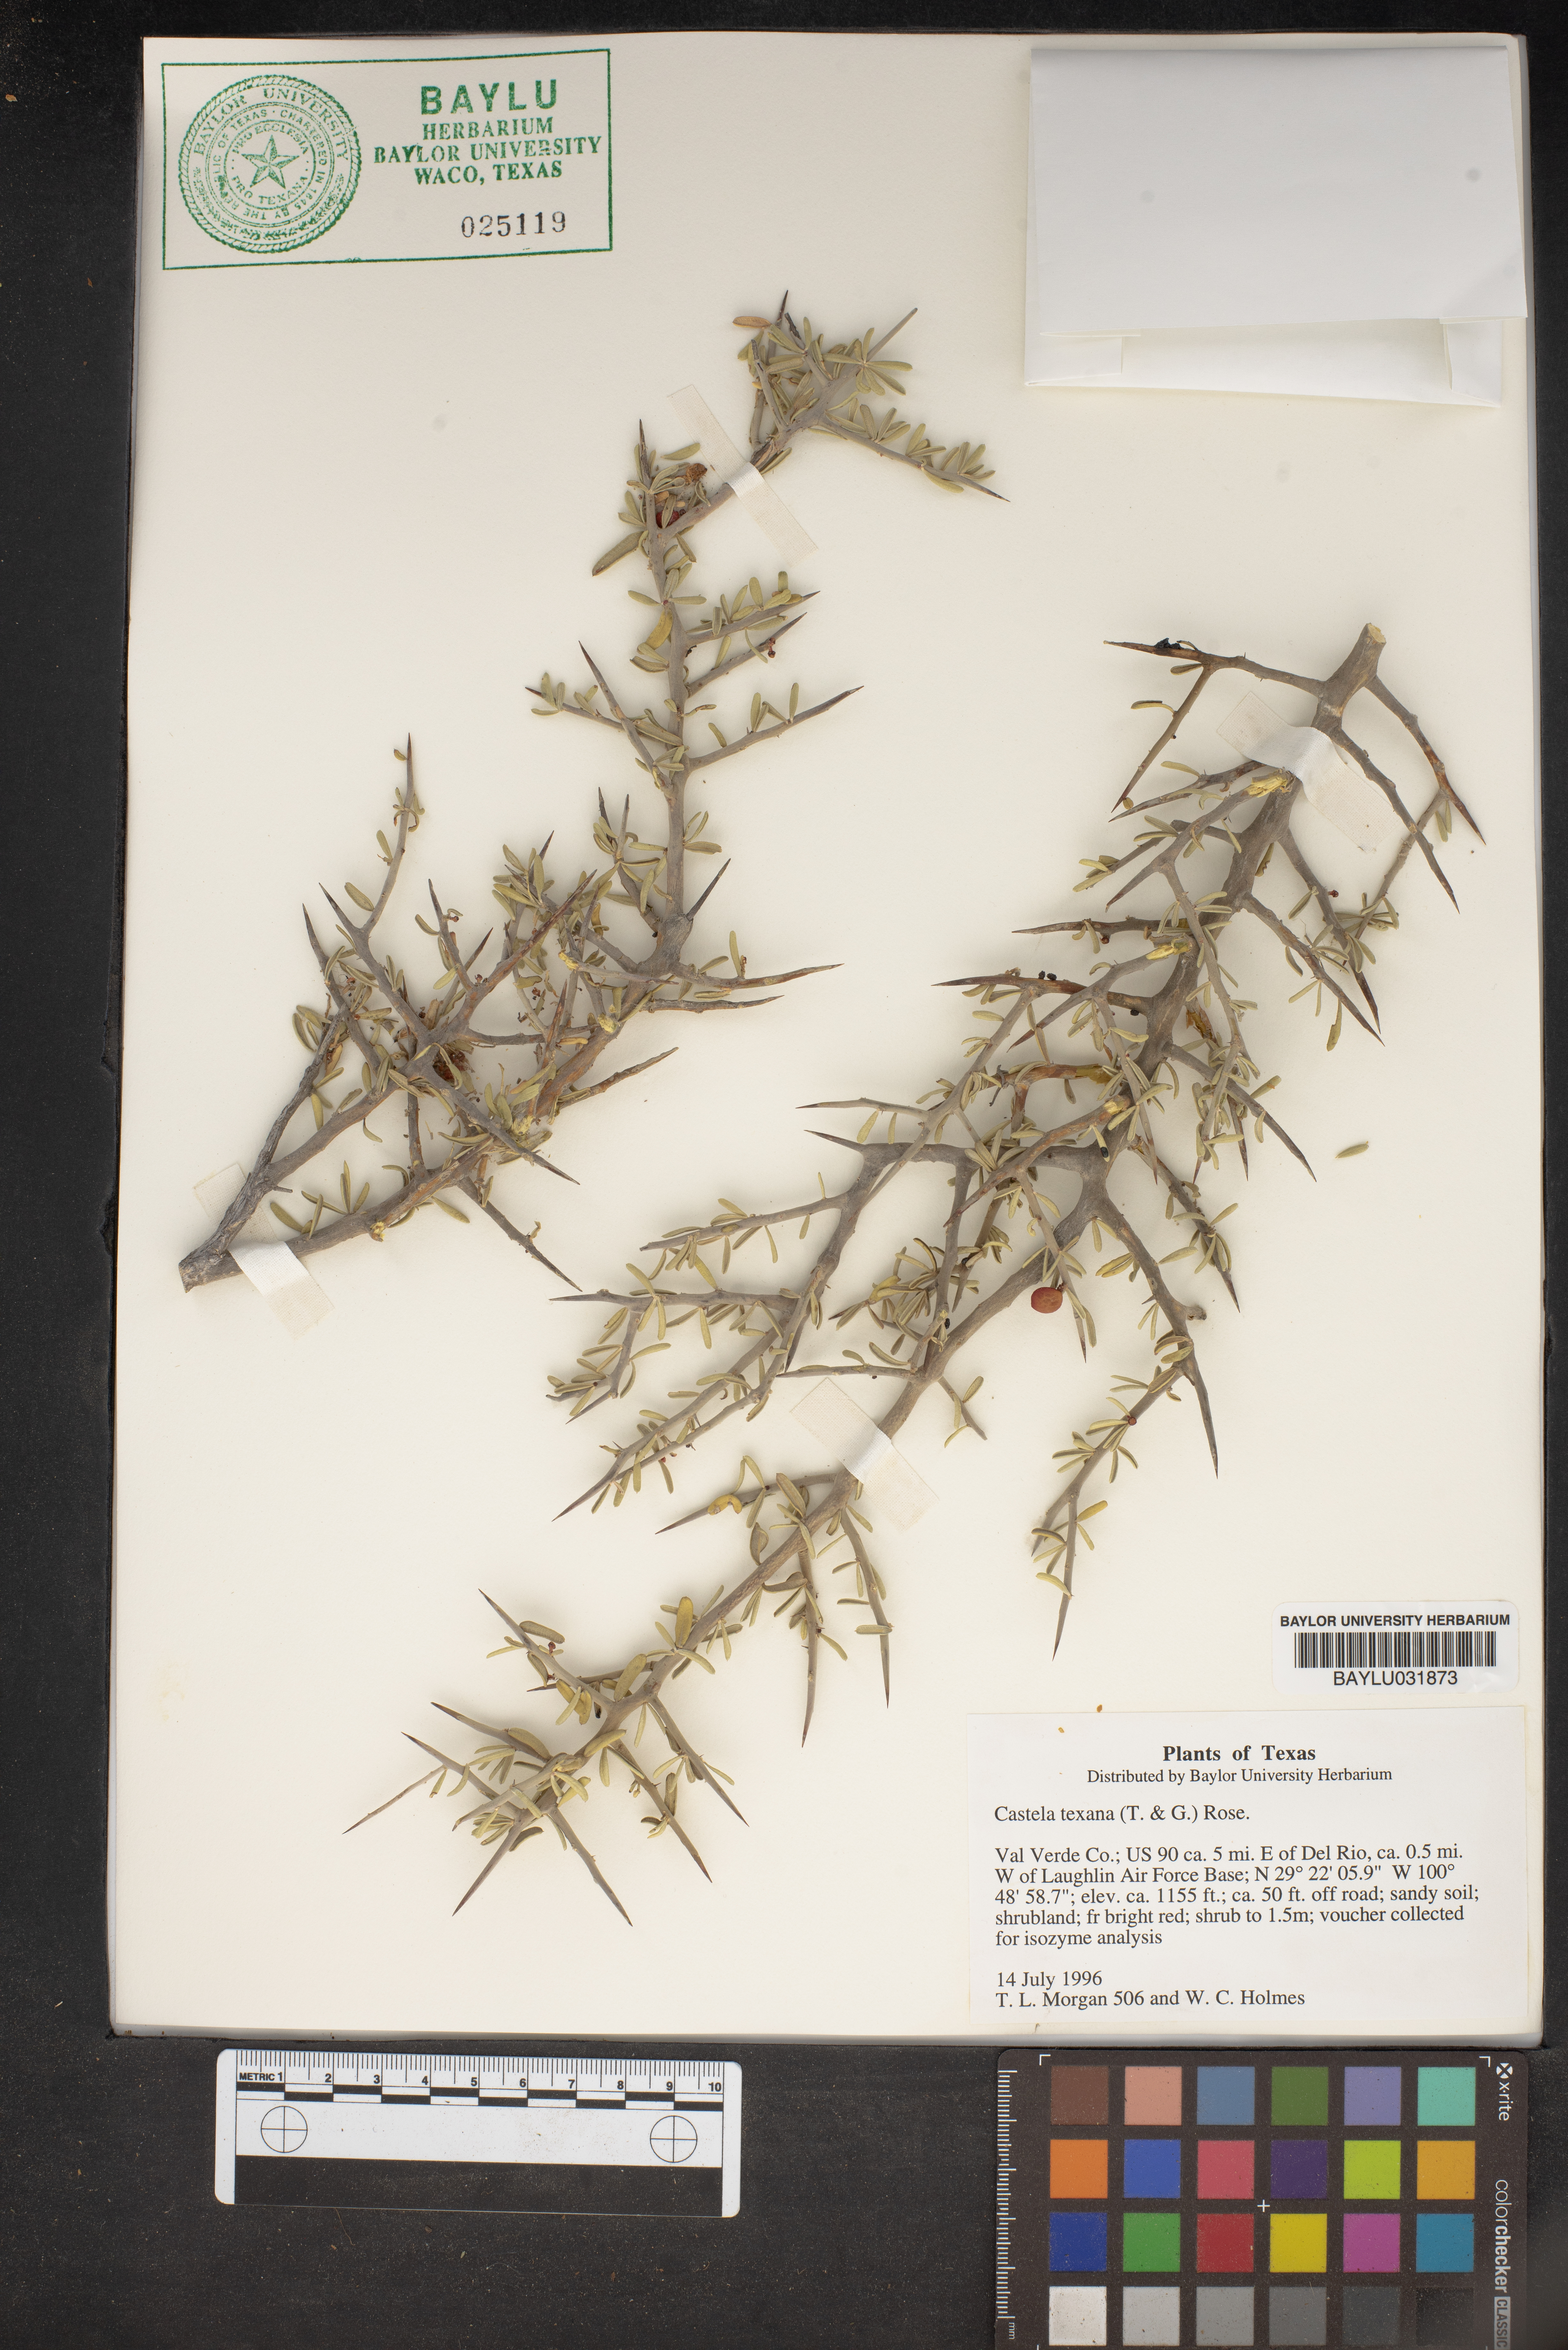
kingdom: Plantae
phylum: Tracheophyta
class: Magnoliopsida
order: Sapindales
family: Simaroubaceae
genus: Castela
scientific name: Castela tortuosa
